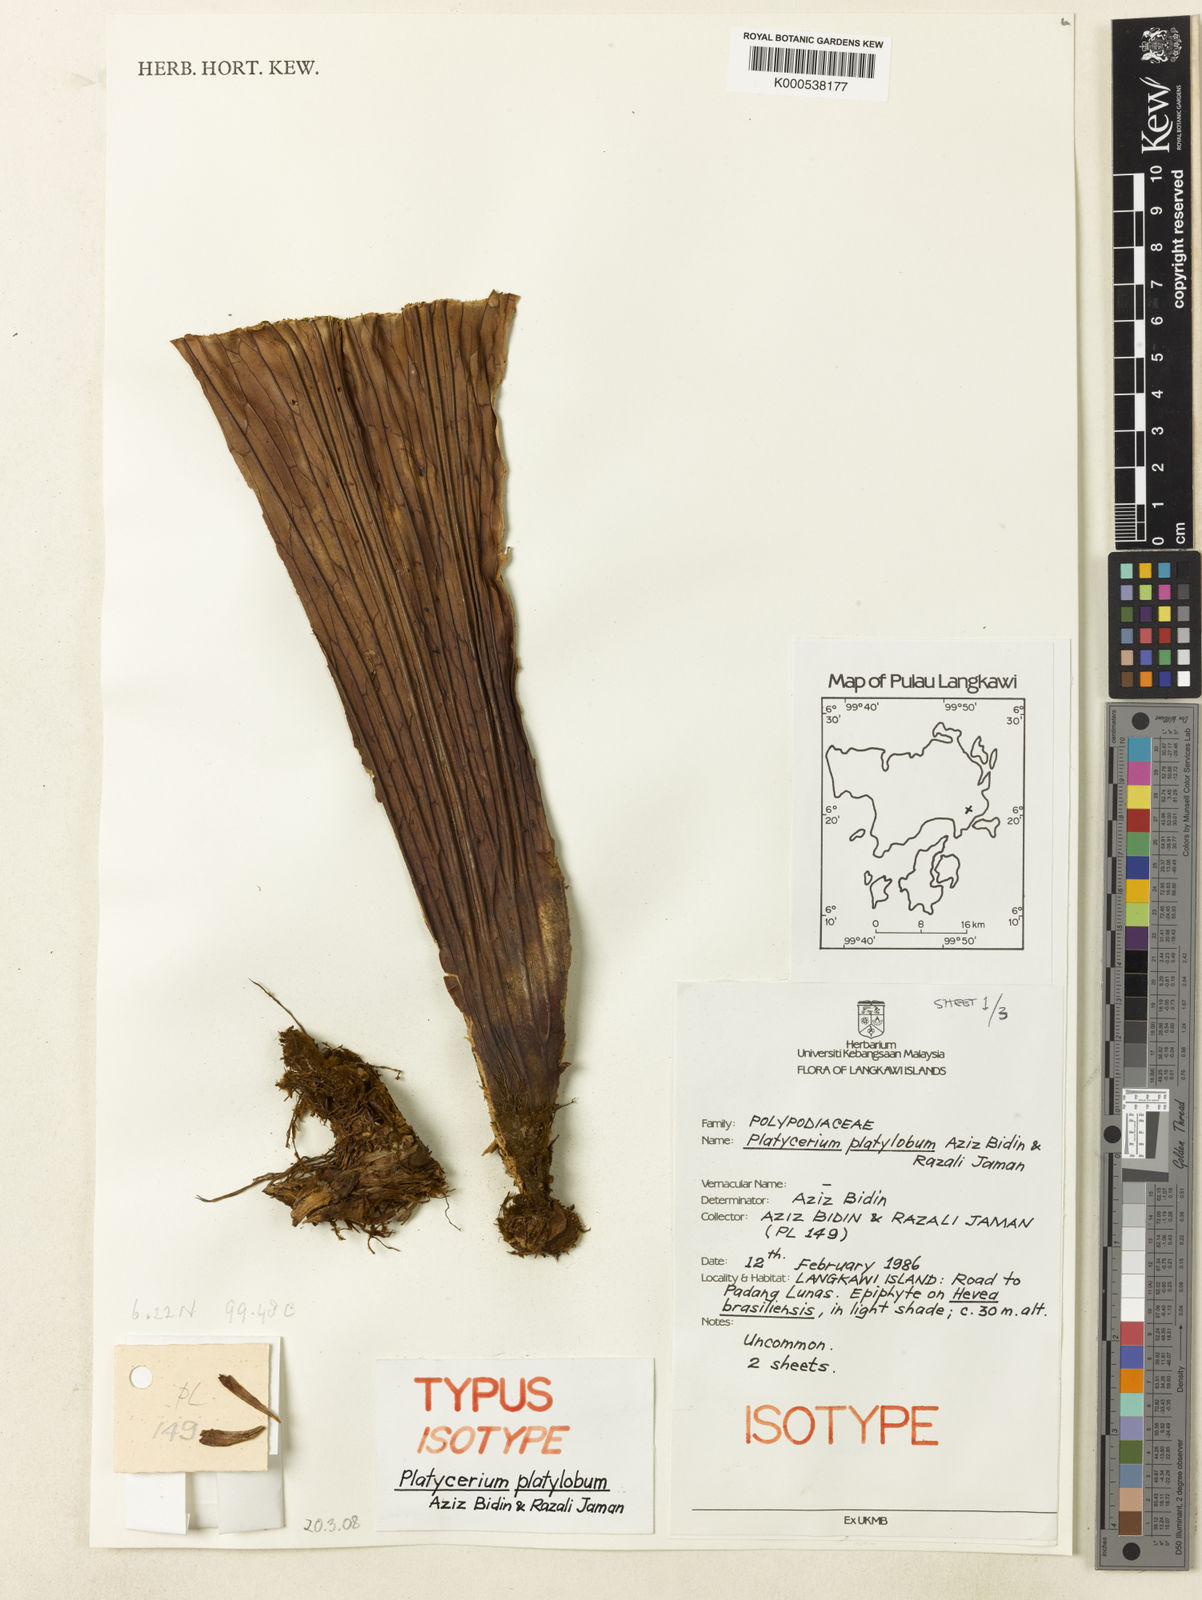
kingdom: Plantae
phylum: Tracheophyta
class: Polypodiopsida
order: Polypodiales
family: Polypodiaceae
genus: Platycerium
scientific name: Platycerium coronarium
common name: Elkhorn fern
